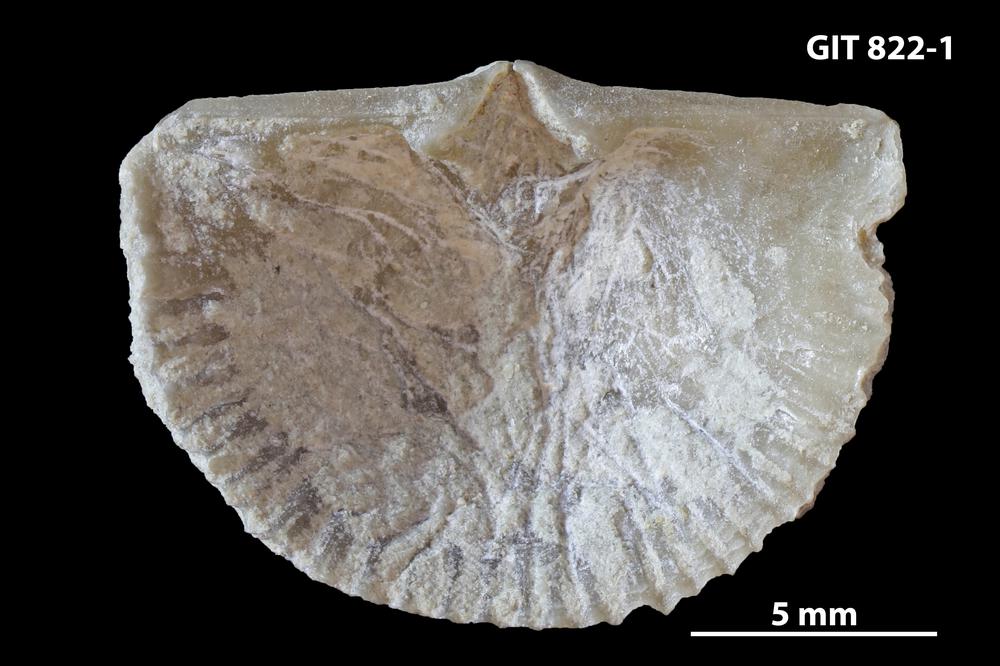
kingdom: Animalia
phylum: Brachiopoda
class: Rhynchonellata
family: Productorthidae
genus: Panderina
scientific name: Panderina abscissus
